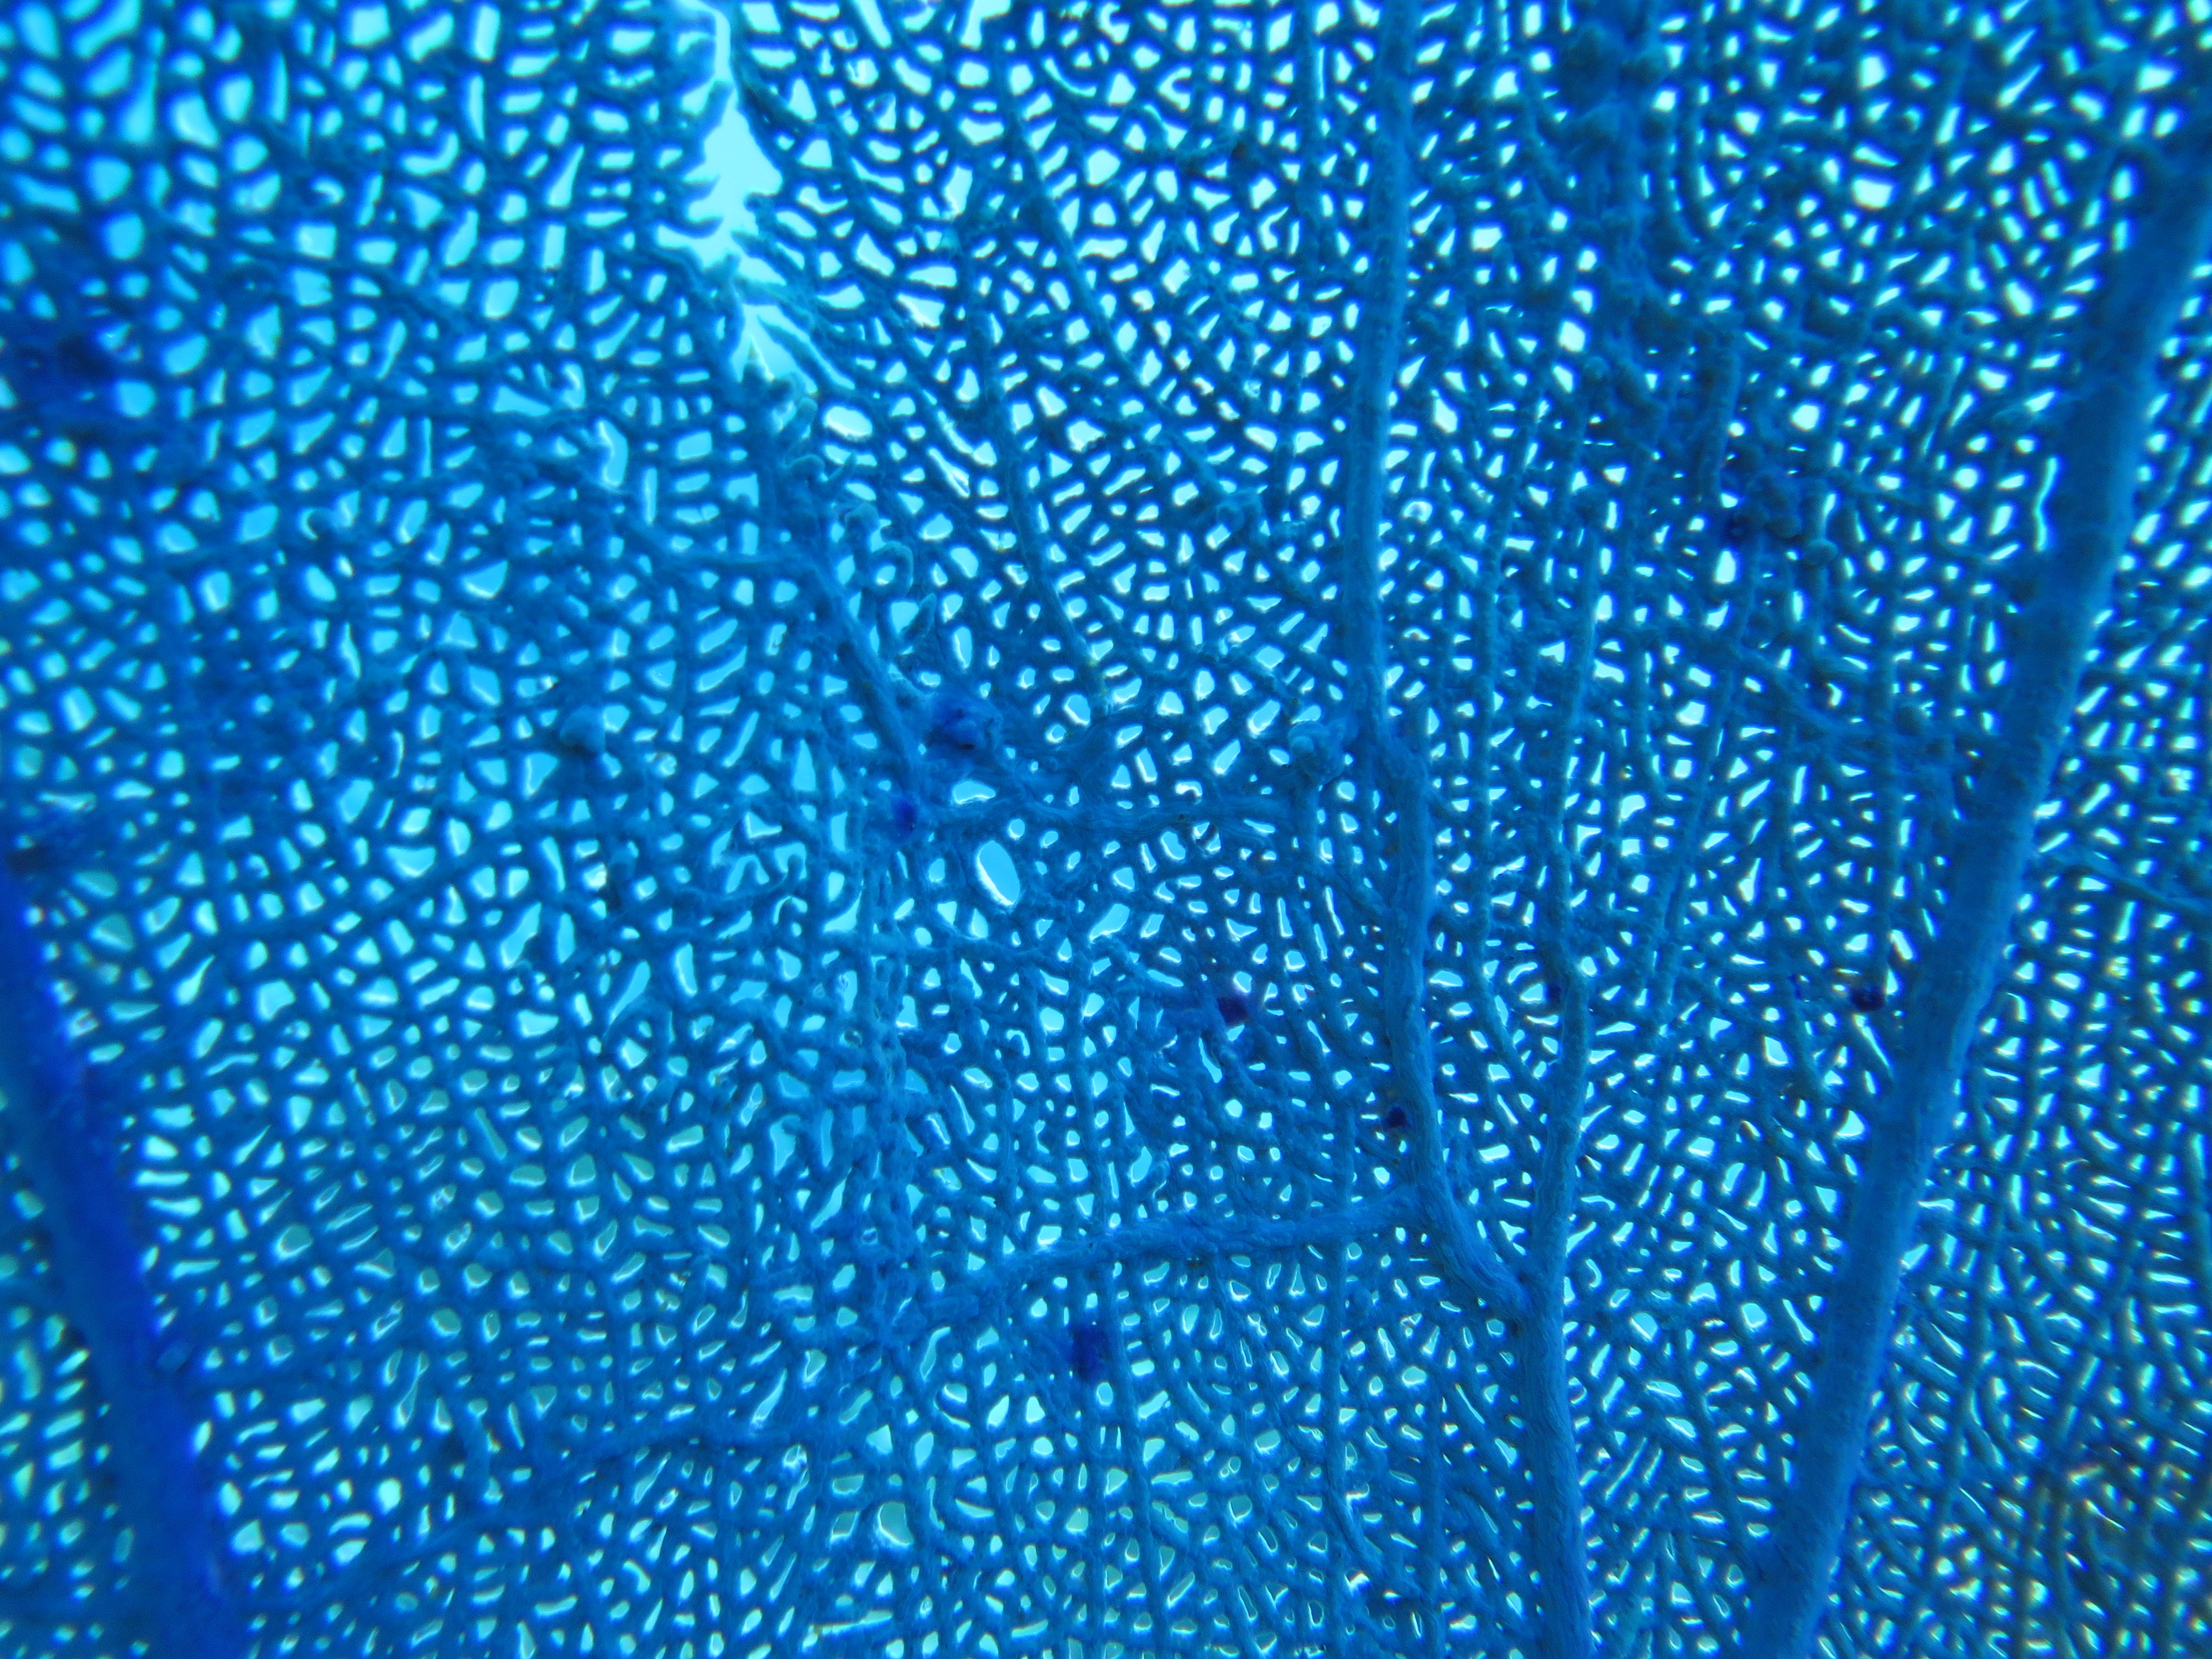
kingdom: Animalia
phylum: Cnidaria
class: Anthozoa
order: Malacalcyonacea
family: Gorgoniidae
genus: Gorgonia
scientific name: Gorgonia
